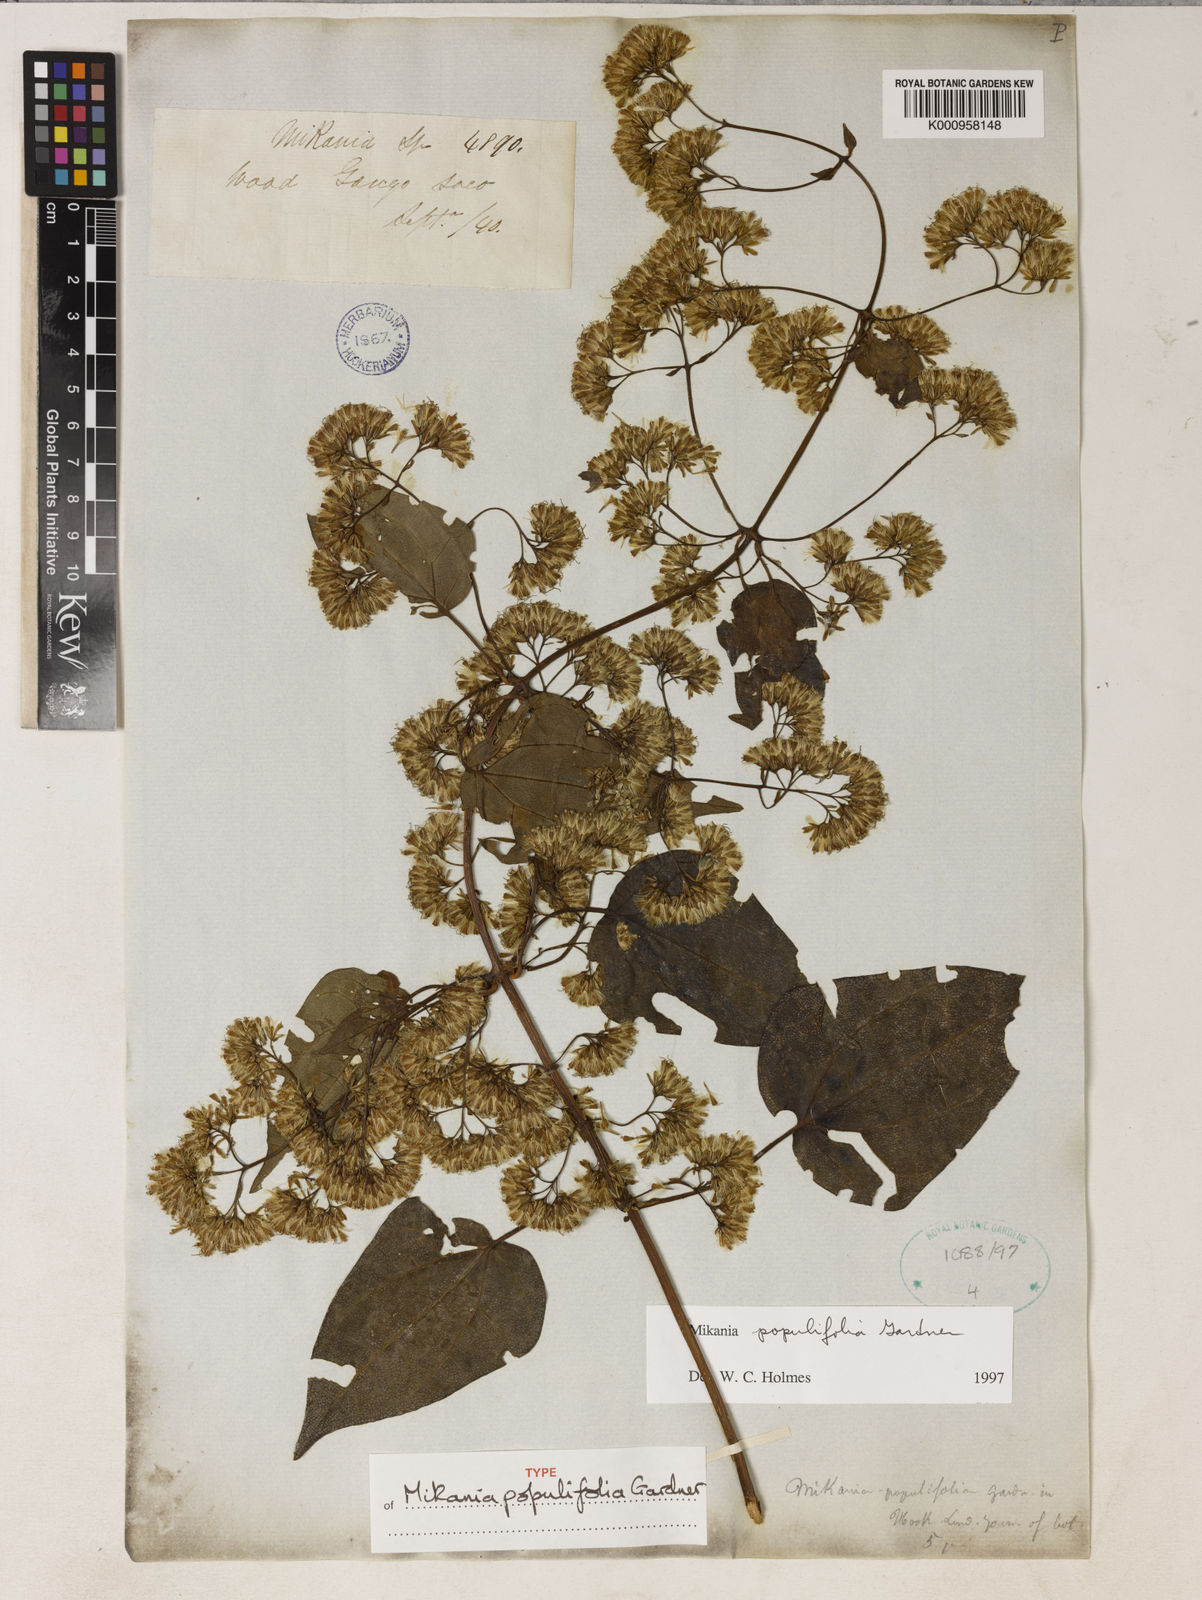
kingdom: Plantae
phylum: Tracheophyta
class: Magnoliopsida
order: Asterales
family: Asteraceae
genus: Mikania
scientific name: Mikania populifolia
